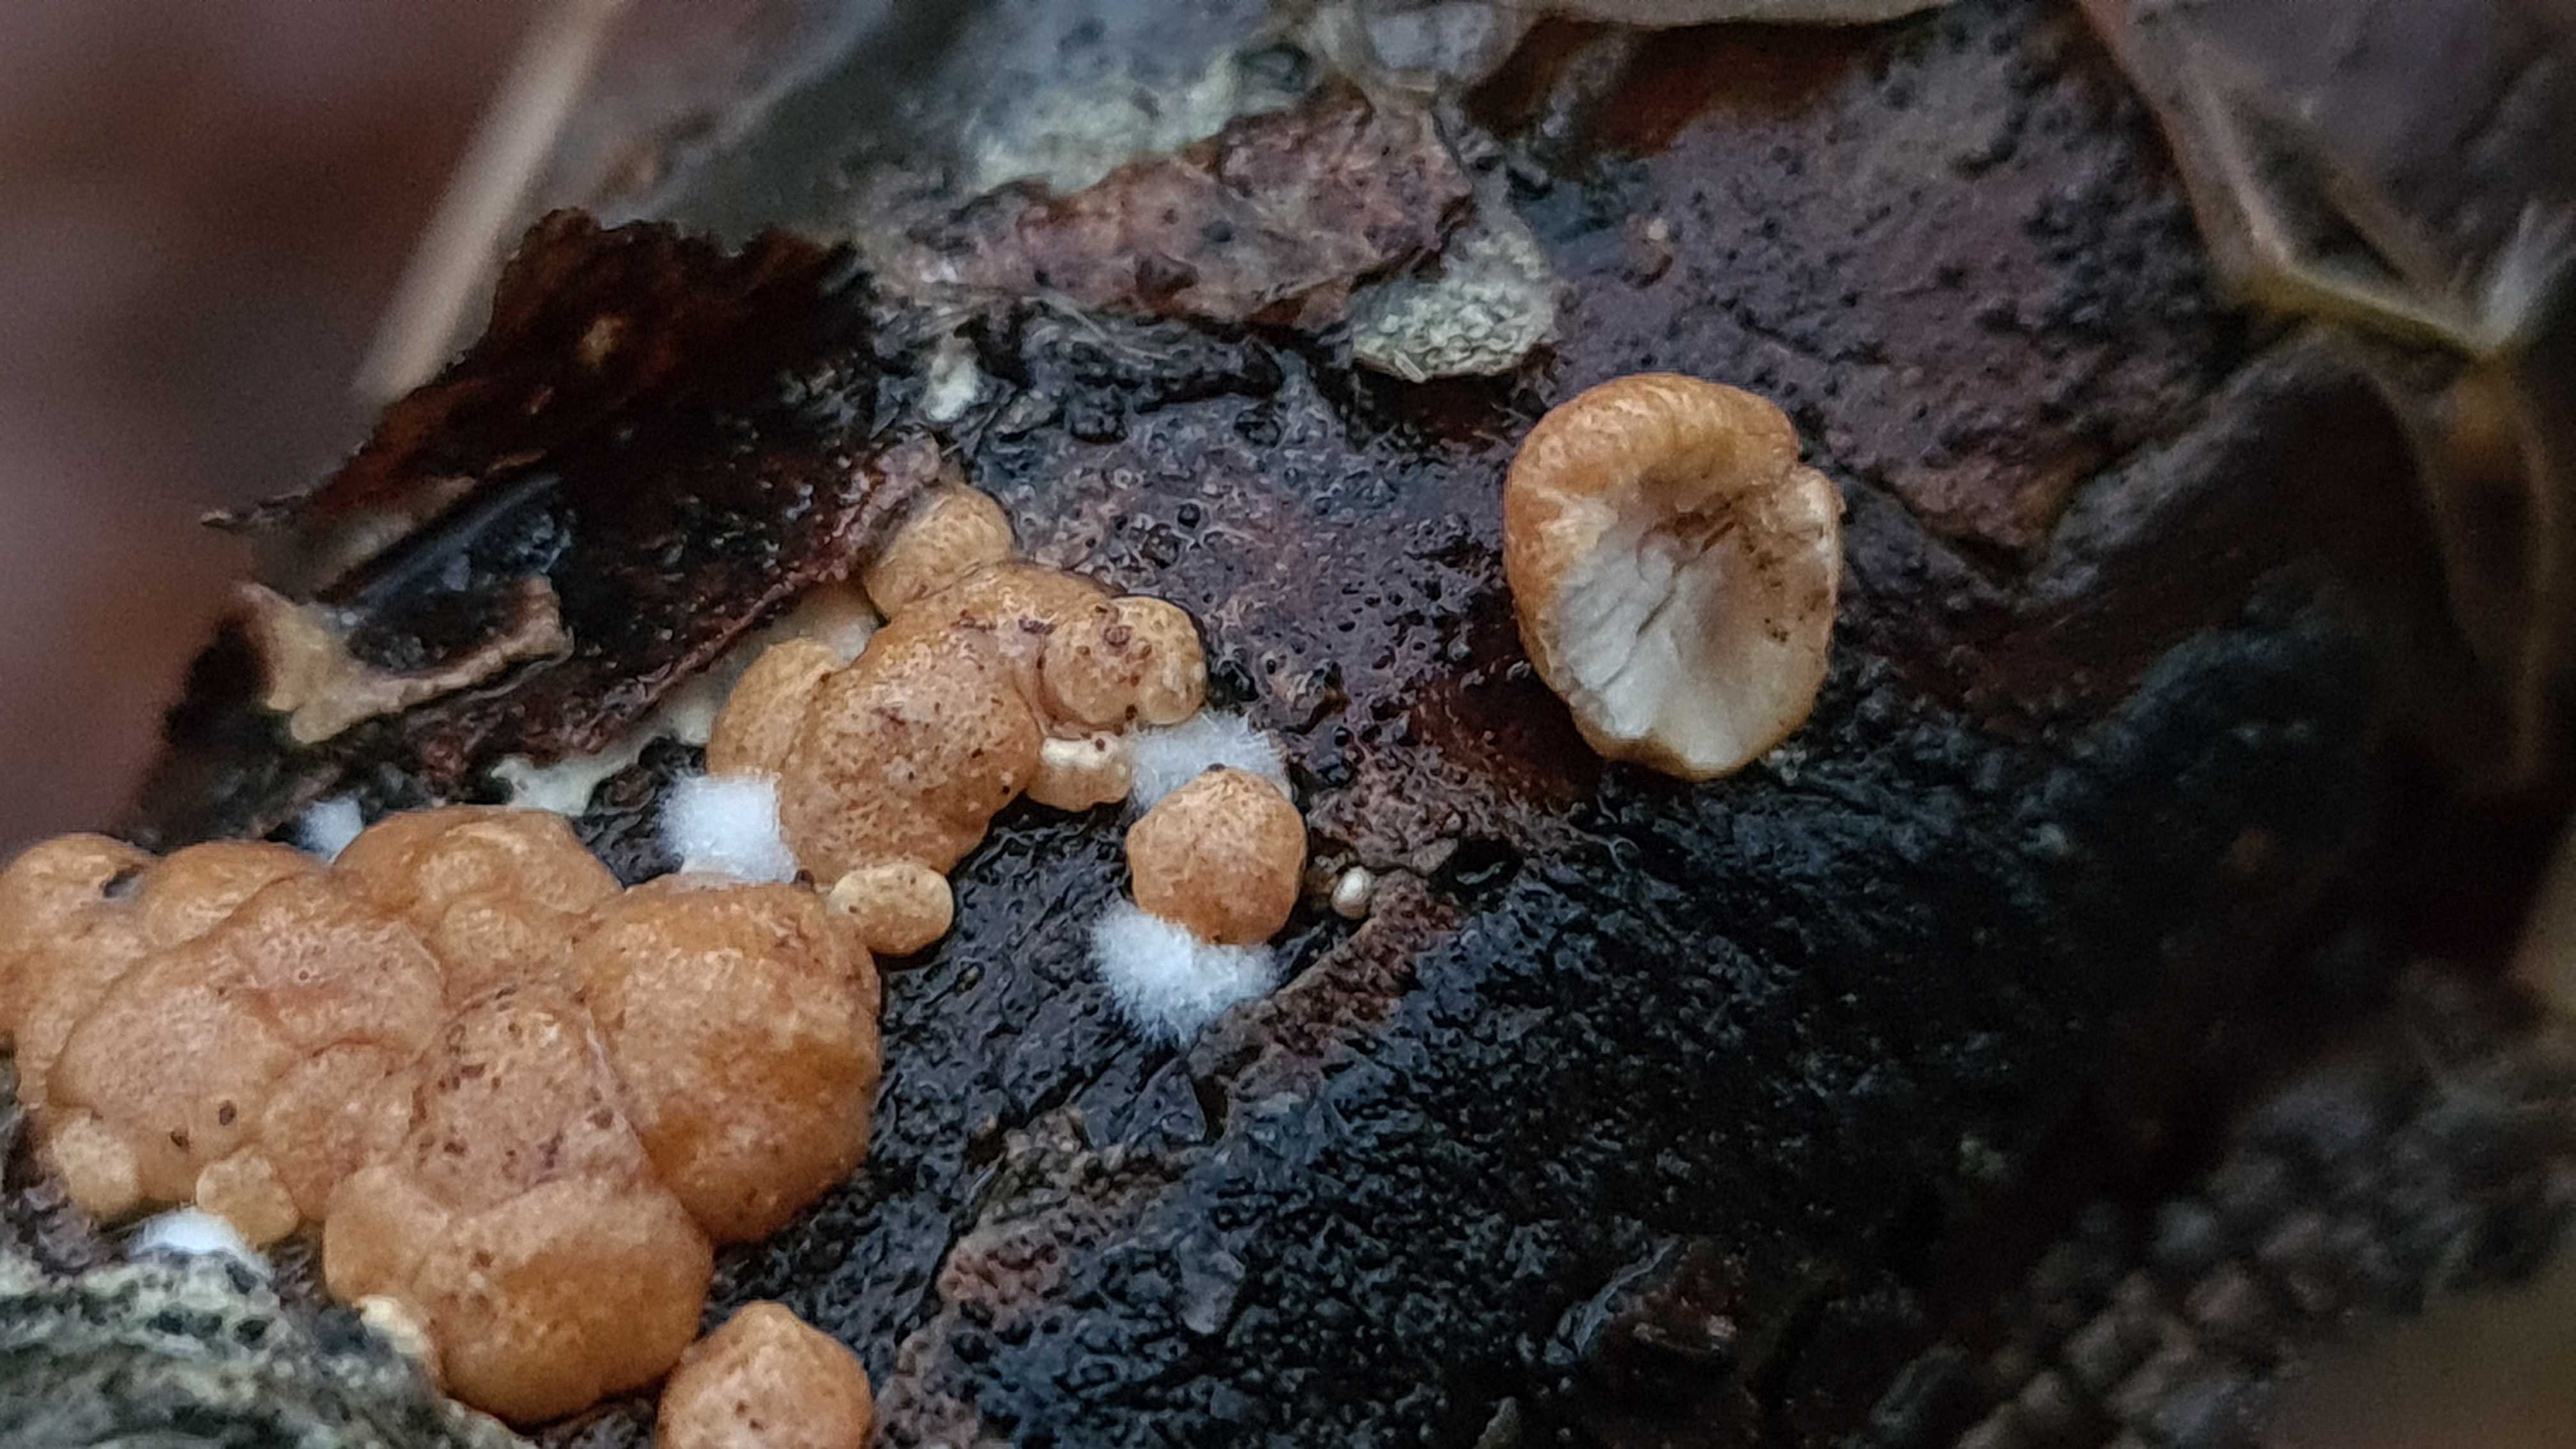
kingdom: Fungi
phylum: Ascomycota
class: Sordariomycetes
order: Hypocreales
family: Hypocreaceae
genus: Trichoderma
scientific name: Trichoderma europaeum
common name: rosabrun kødkerne
